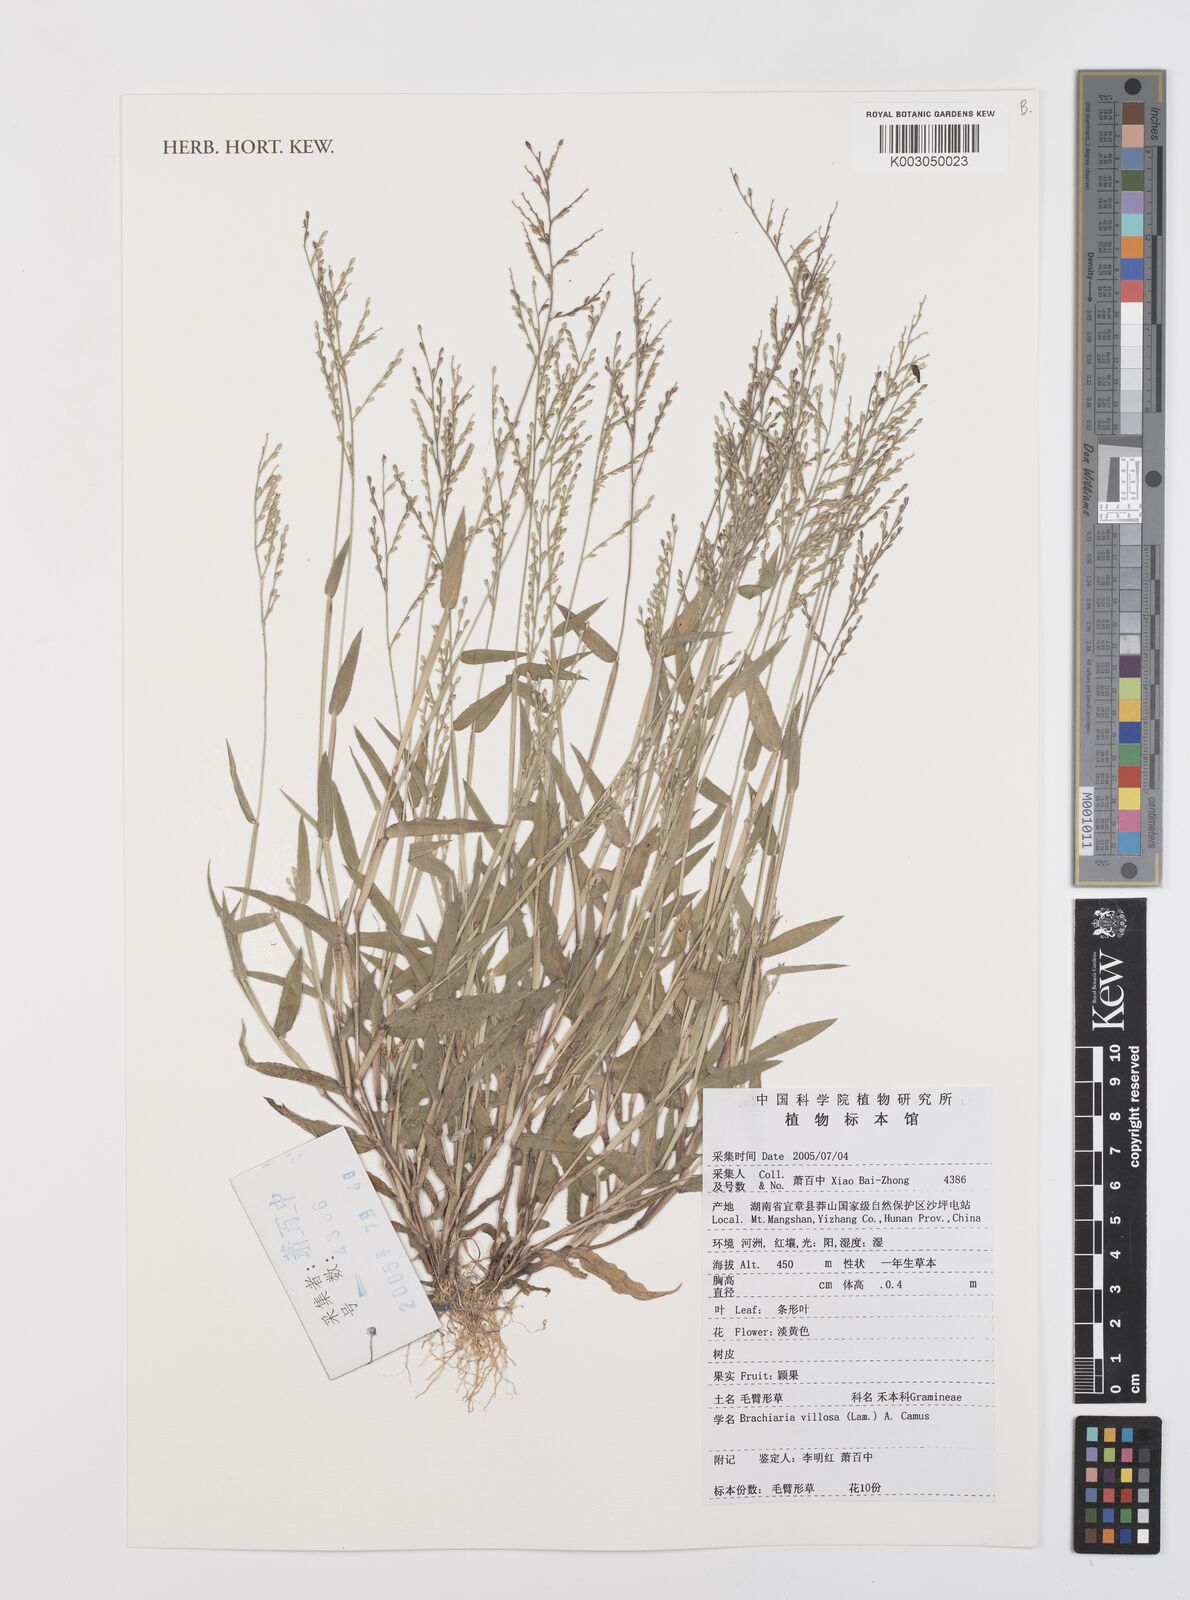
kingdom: Plantae
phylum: Tracheophyta
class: Liliopsida
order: Poales
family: Poaceae
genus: Urochloa
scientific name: Urochloa villosa
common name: Hairy signalgrass
